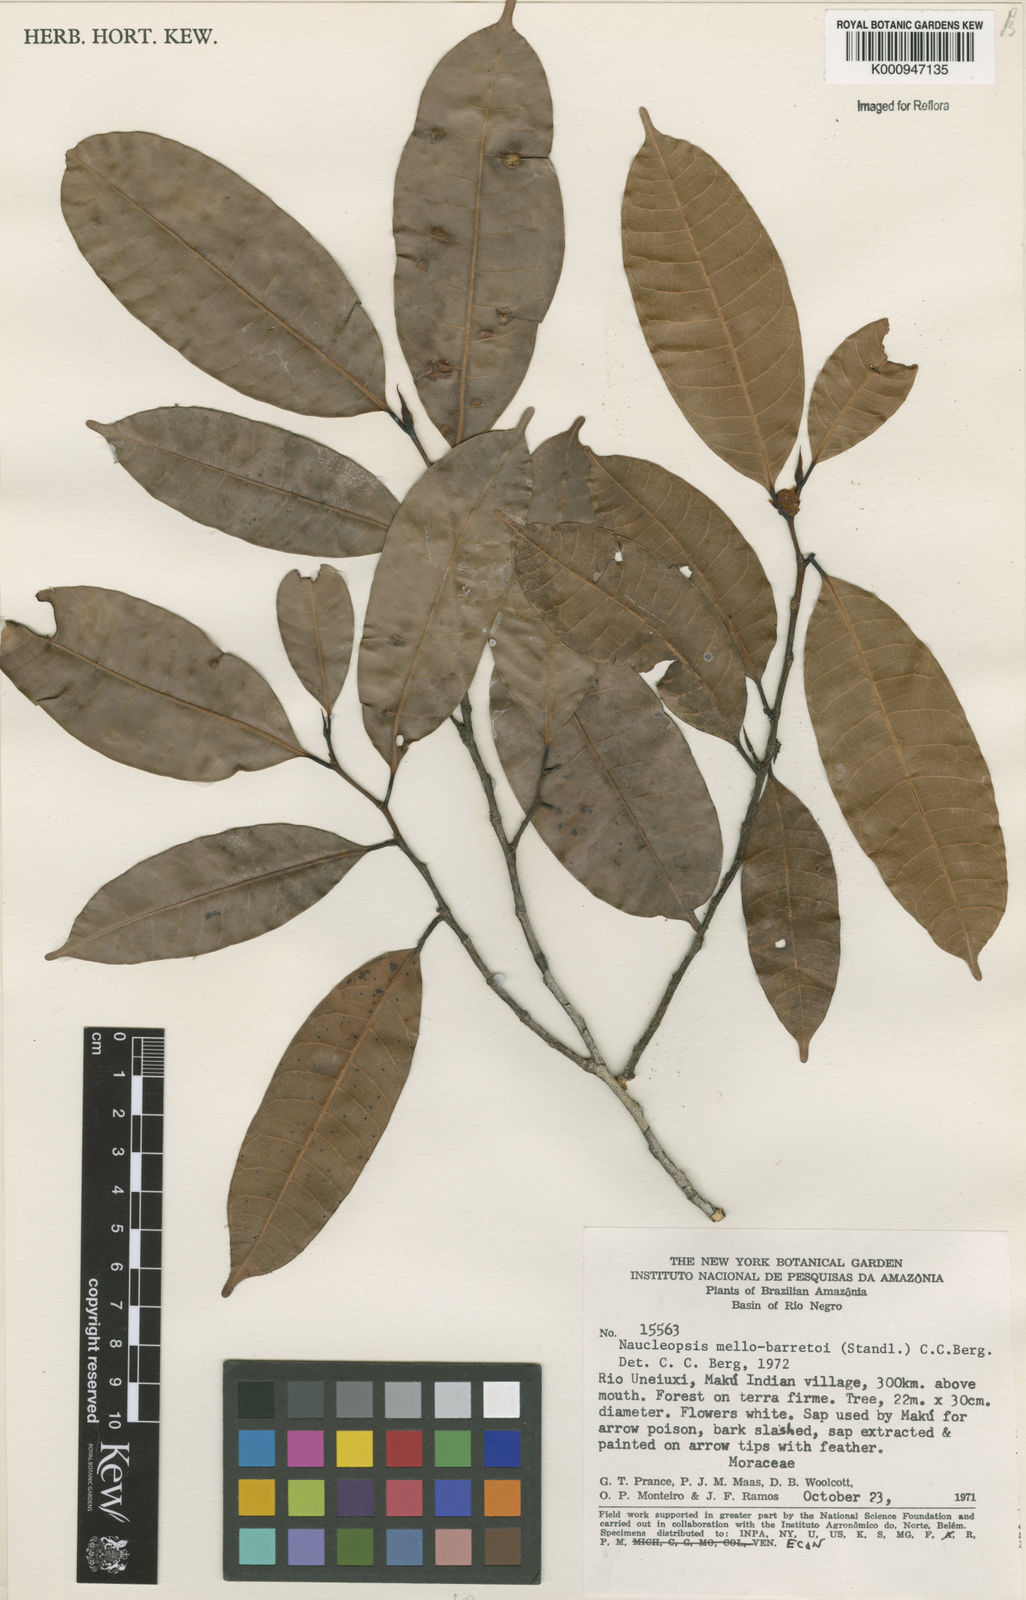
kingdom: Plantae
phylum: Tracheophyta
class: Magnoliopsida
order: Rosales
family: Moraceae
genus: Naucleopsis
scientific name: Naucleopsis oblongifolia
